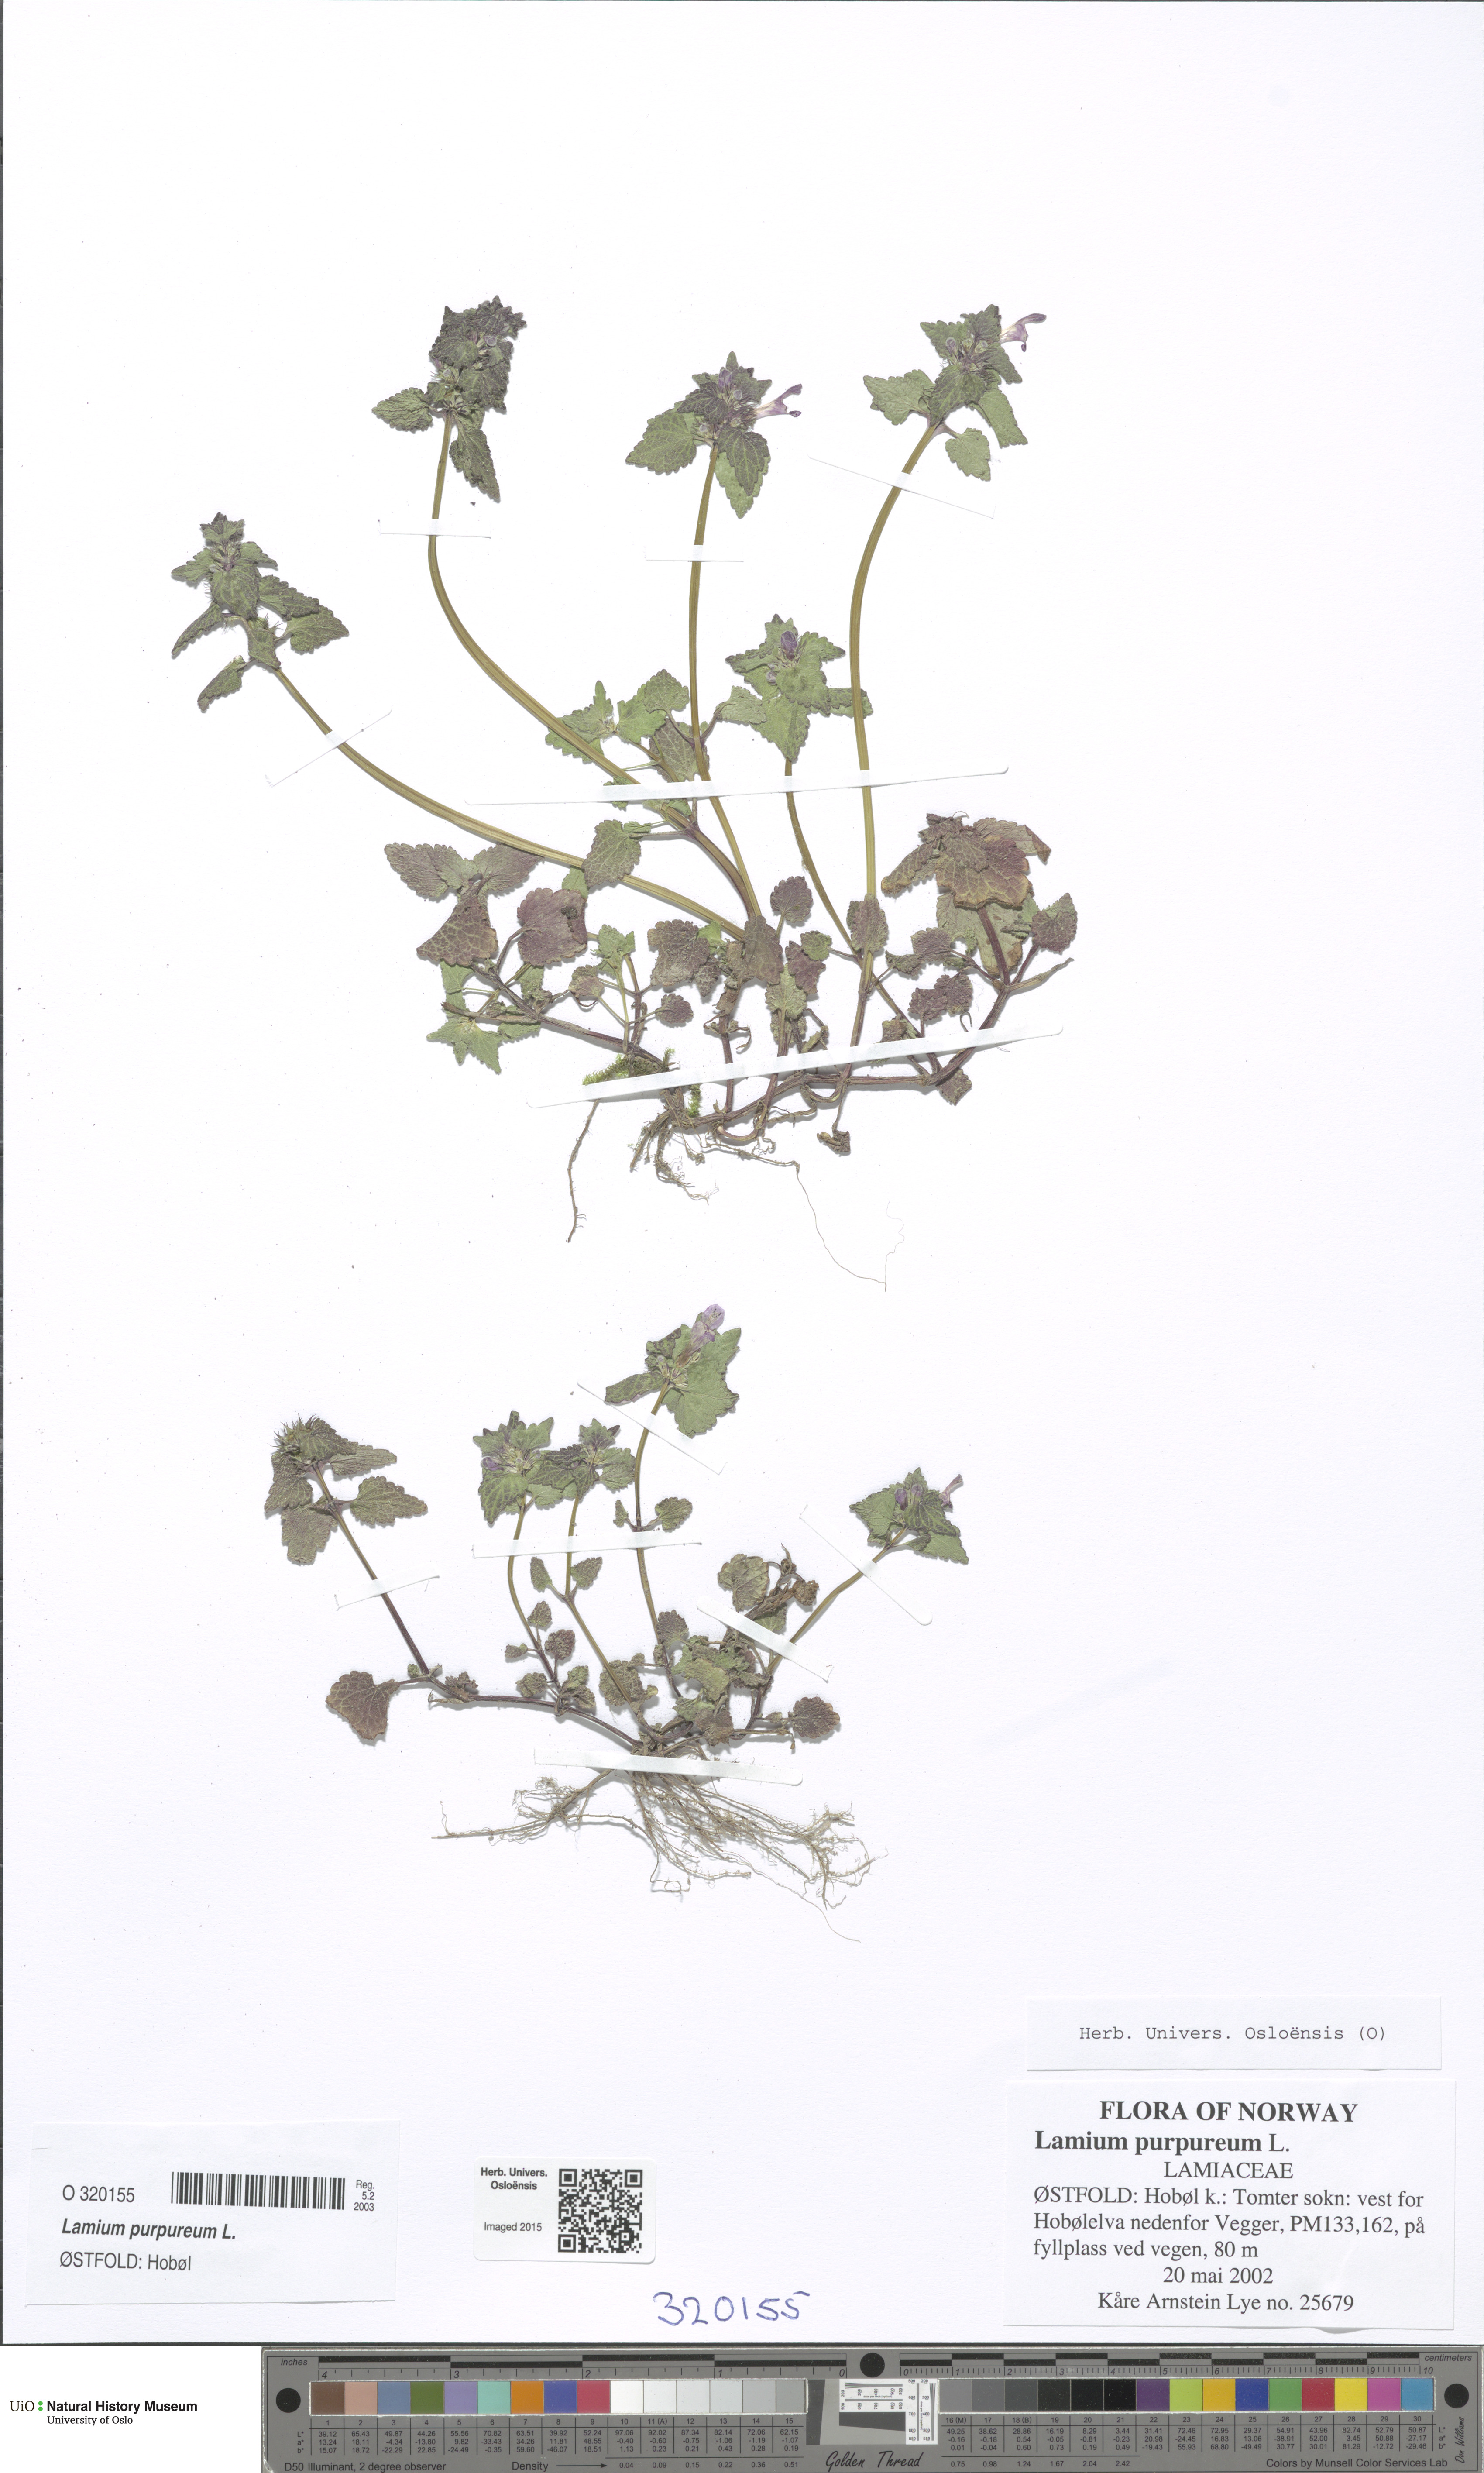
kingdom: Plantae
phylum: Tracheophyta
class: Magnoliopsida
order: Lamiales
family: Lamiaceae
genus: Lamium
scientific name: Lamium purpureum
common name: Red dead-nettle
